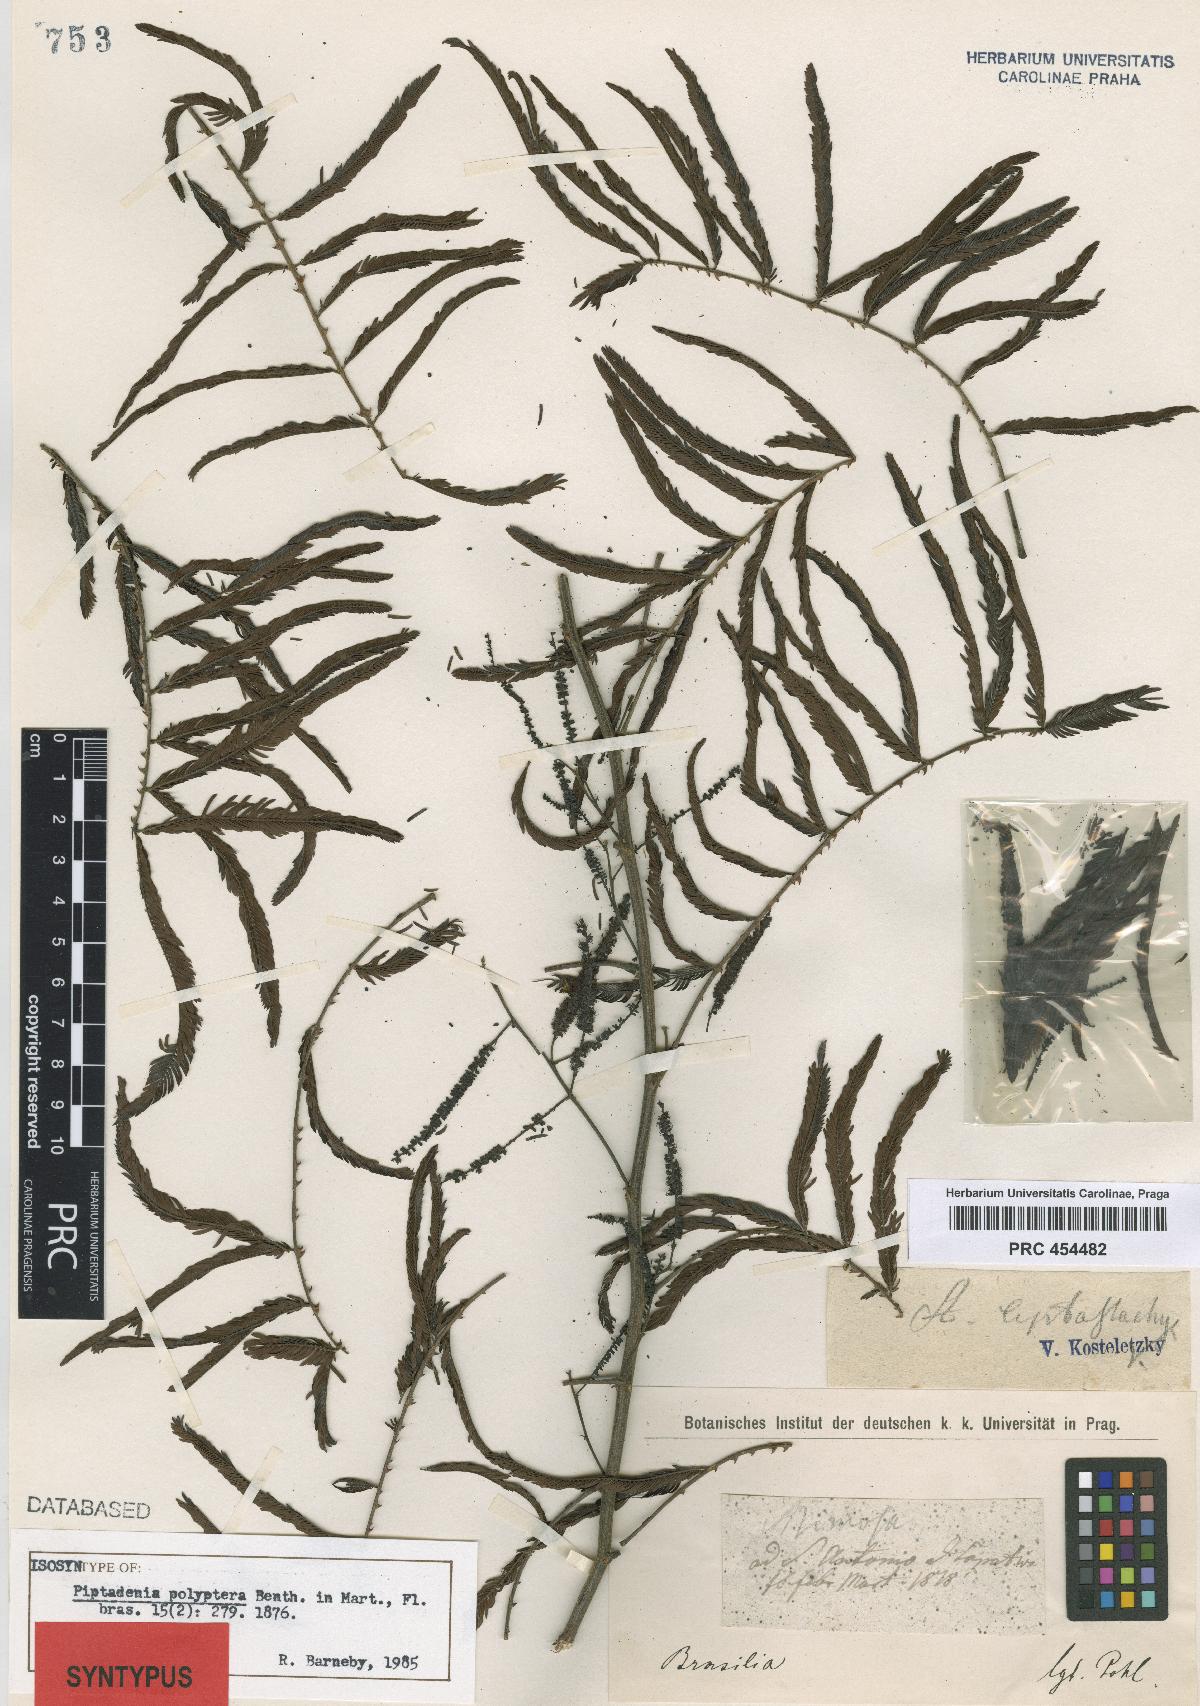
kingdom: Plantae
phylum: Tracheophyta
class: Magnoliopsida
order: Fabales
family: Fabaceae
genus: Piptadenia
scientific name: Piptadenia trisperma
